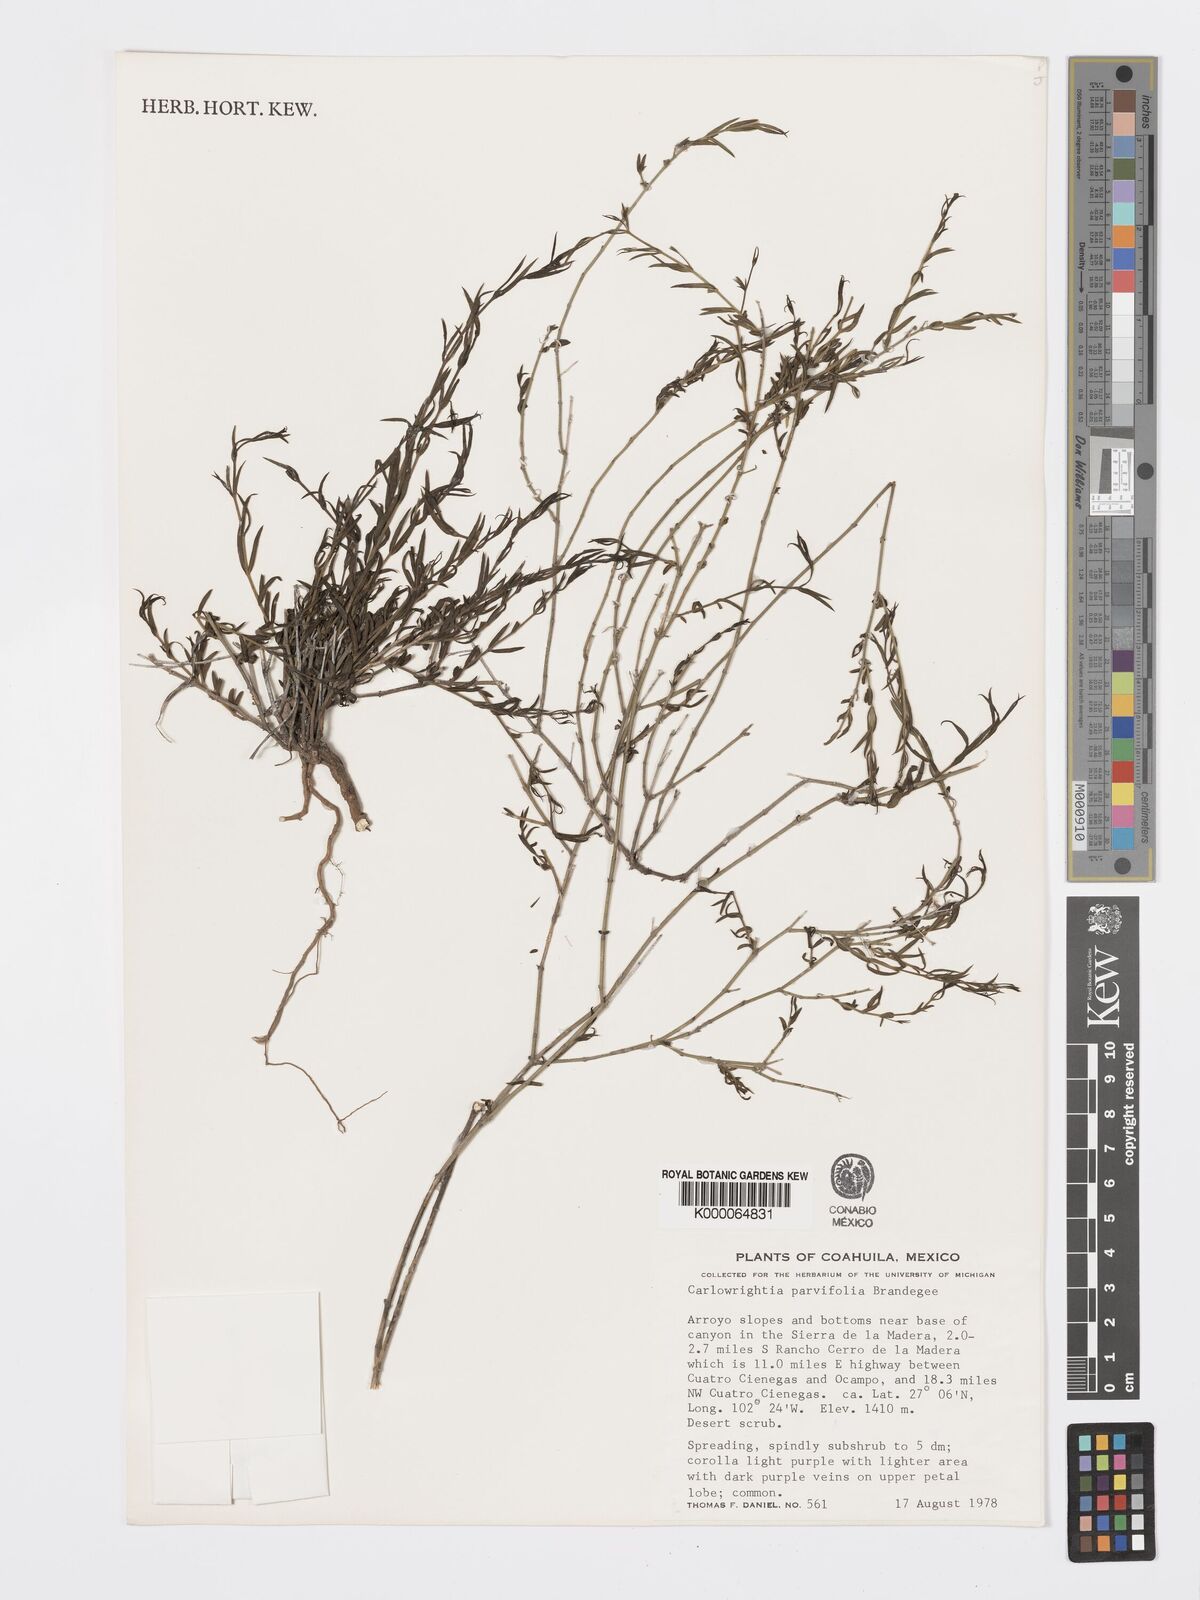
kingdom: Plantae
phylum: Tracheophyta
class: Magnoliopsida
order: Lamiales
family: Acanthaceae
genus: Carlowrightia
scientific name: Carlowrightia parvifolia
